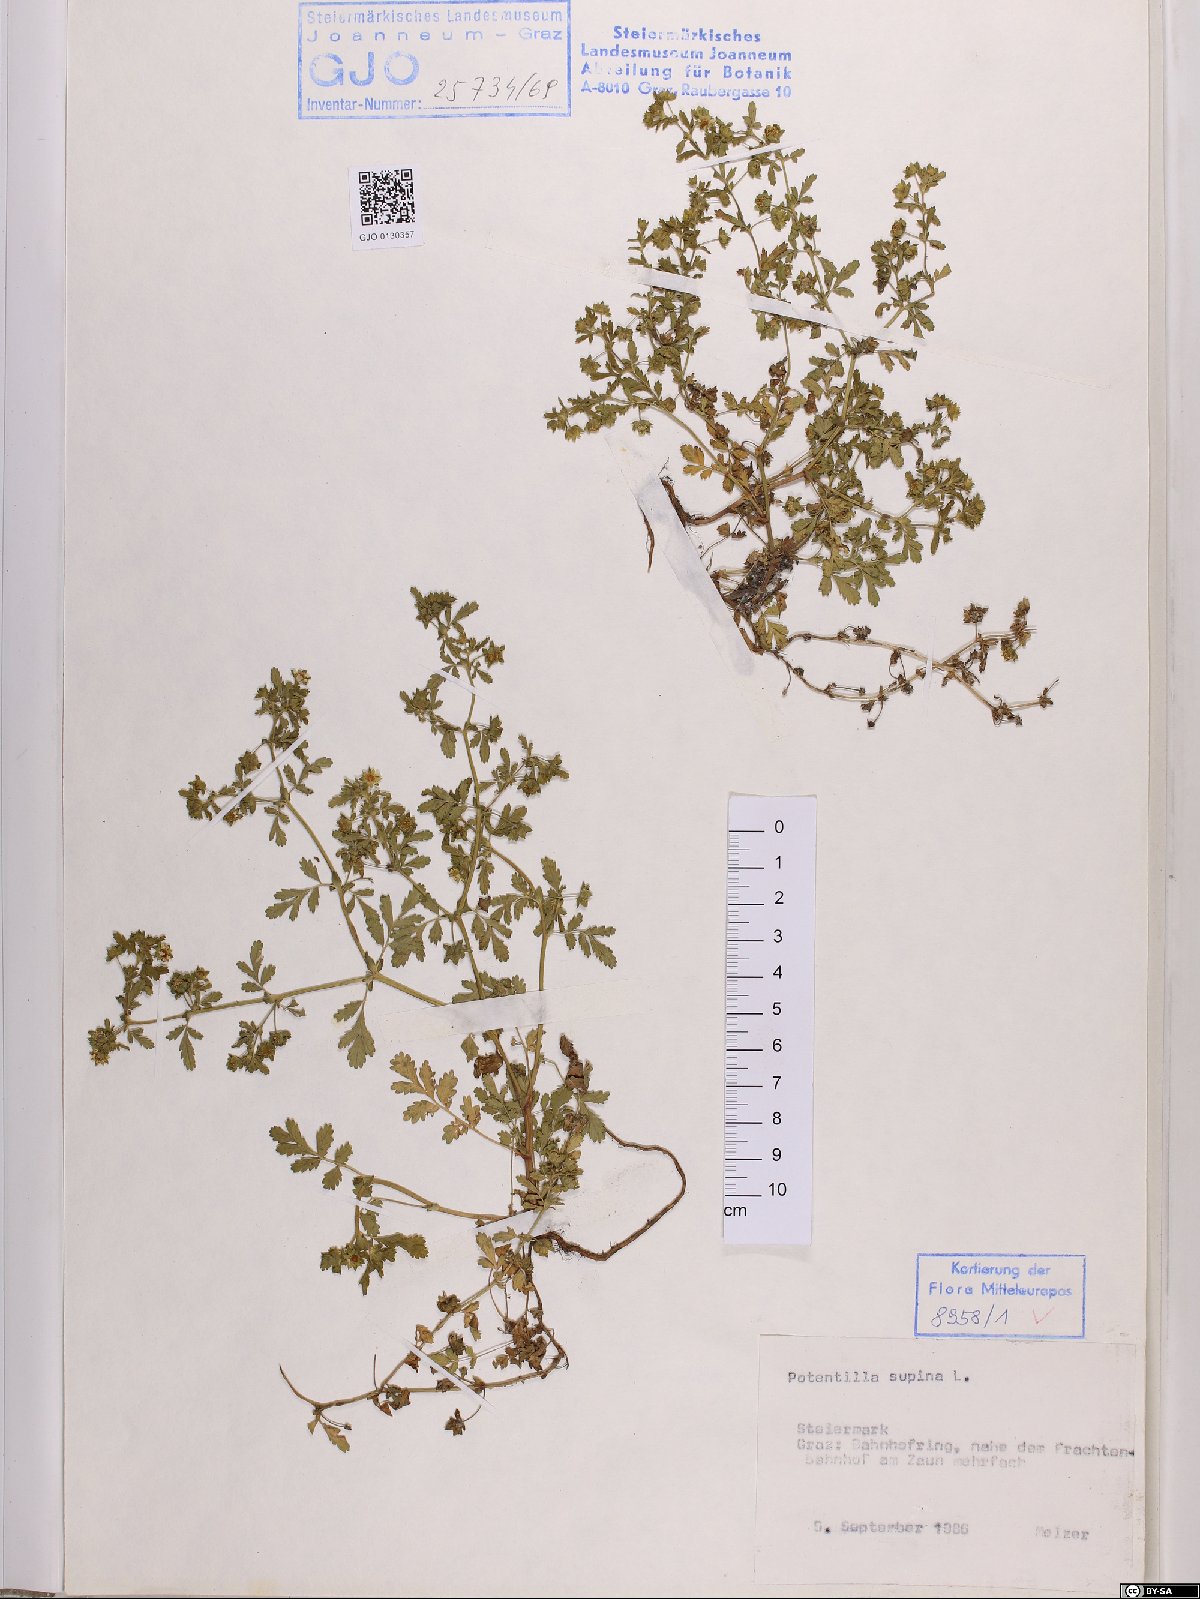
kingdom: Plantae
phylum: Tracheophyta
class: Magnoliopsida
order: Rosales
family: Rosaceae
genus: Potentilla
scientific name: Potentilla supina
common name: Prostrate cinquefoil
